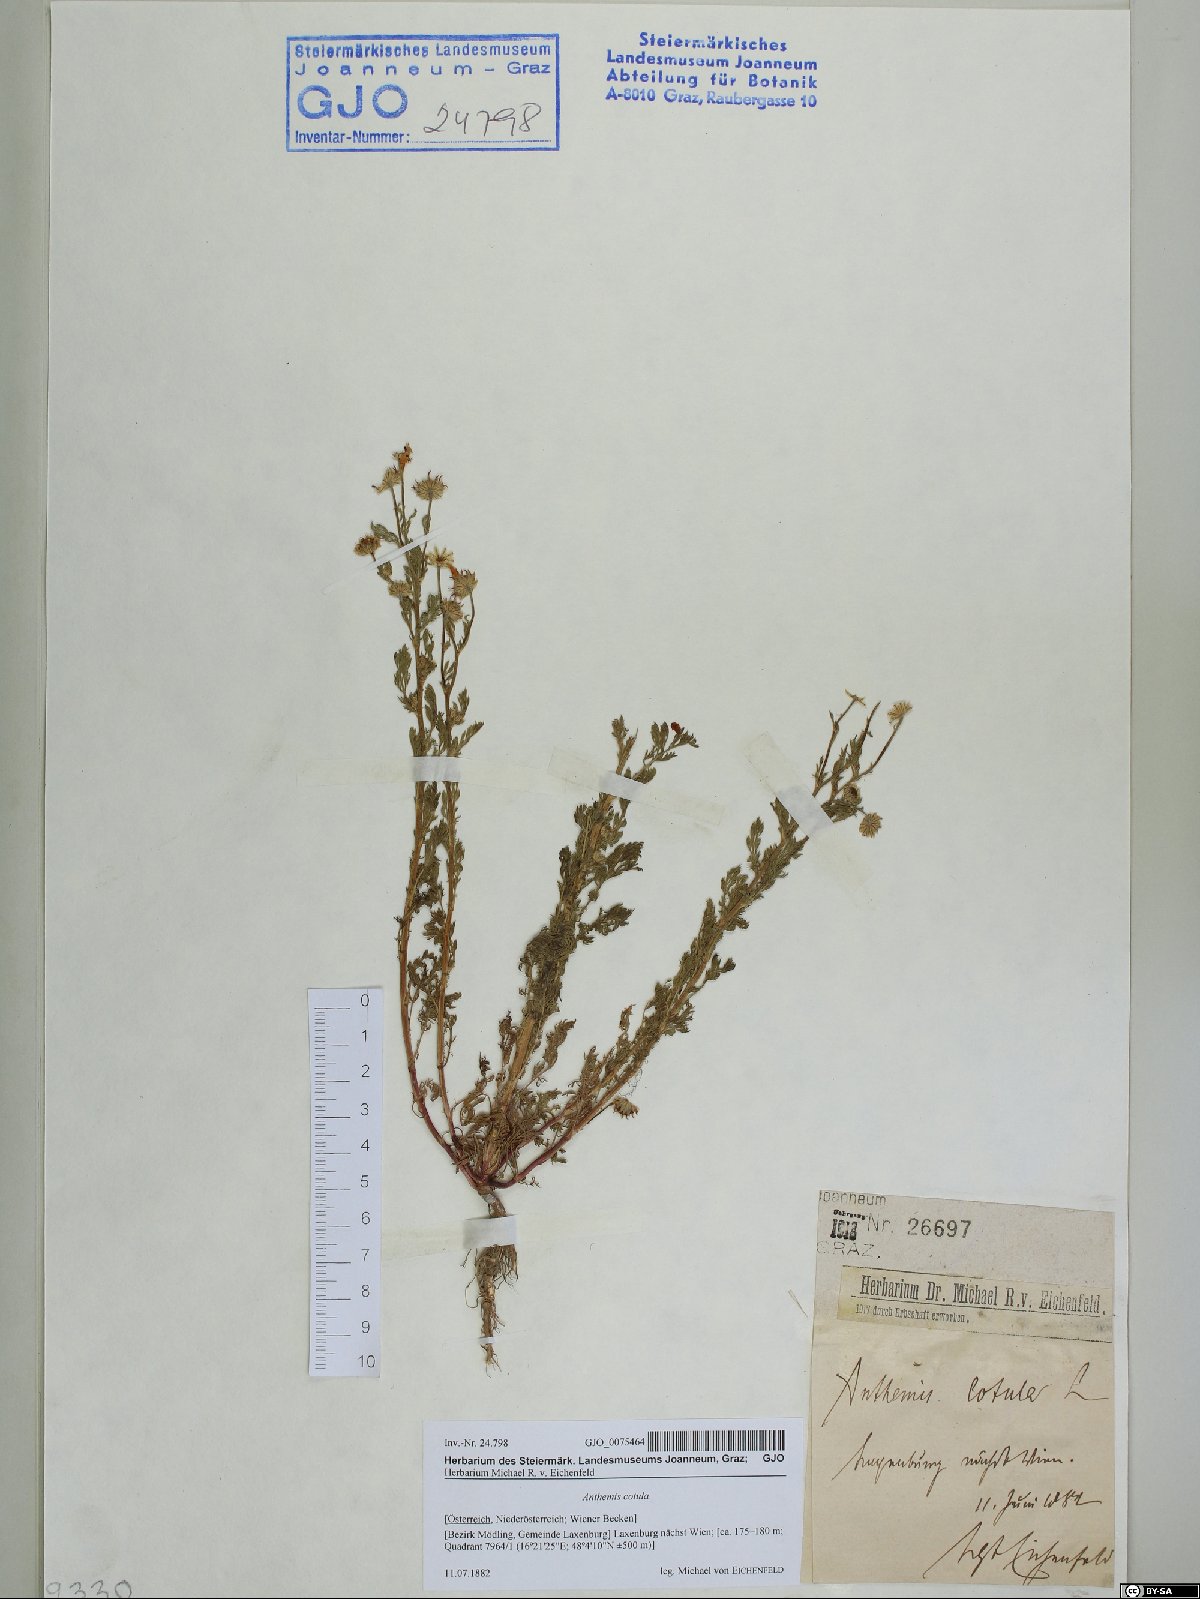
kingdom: Plantae
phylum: Tracheophyta
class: Magnoliopsida
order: Asterales
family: Asteraceae
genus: Anthemis
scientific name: Anthemis cotula
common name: Stinking chamomile
